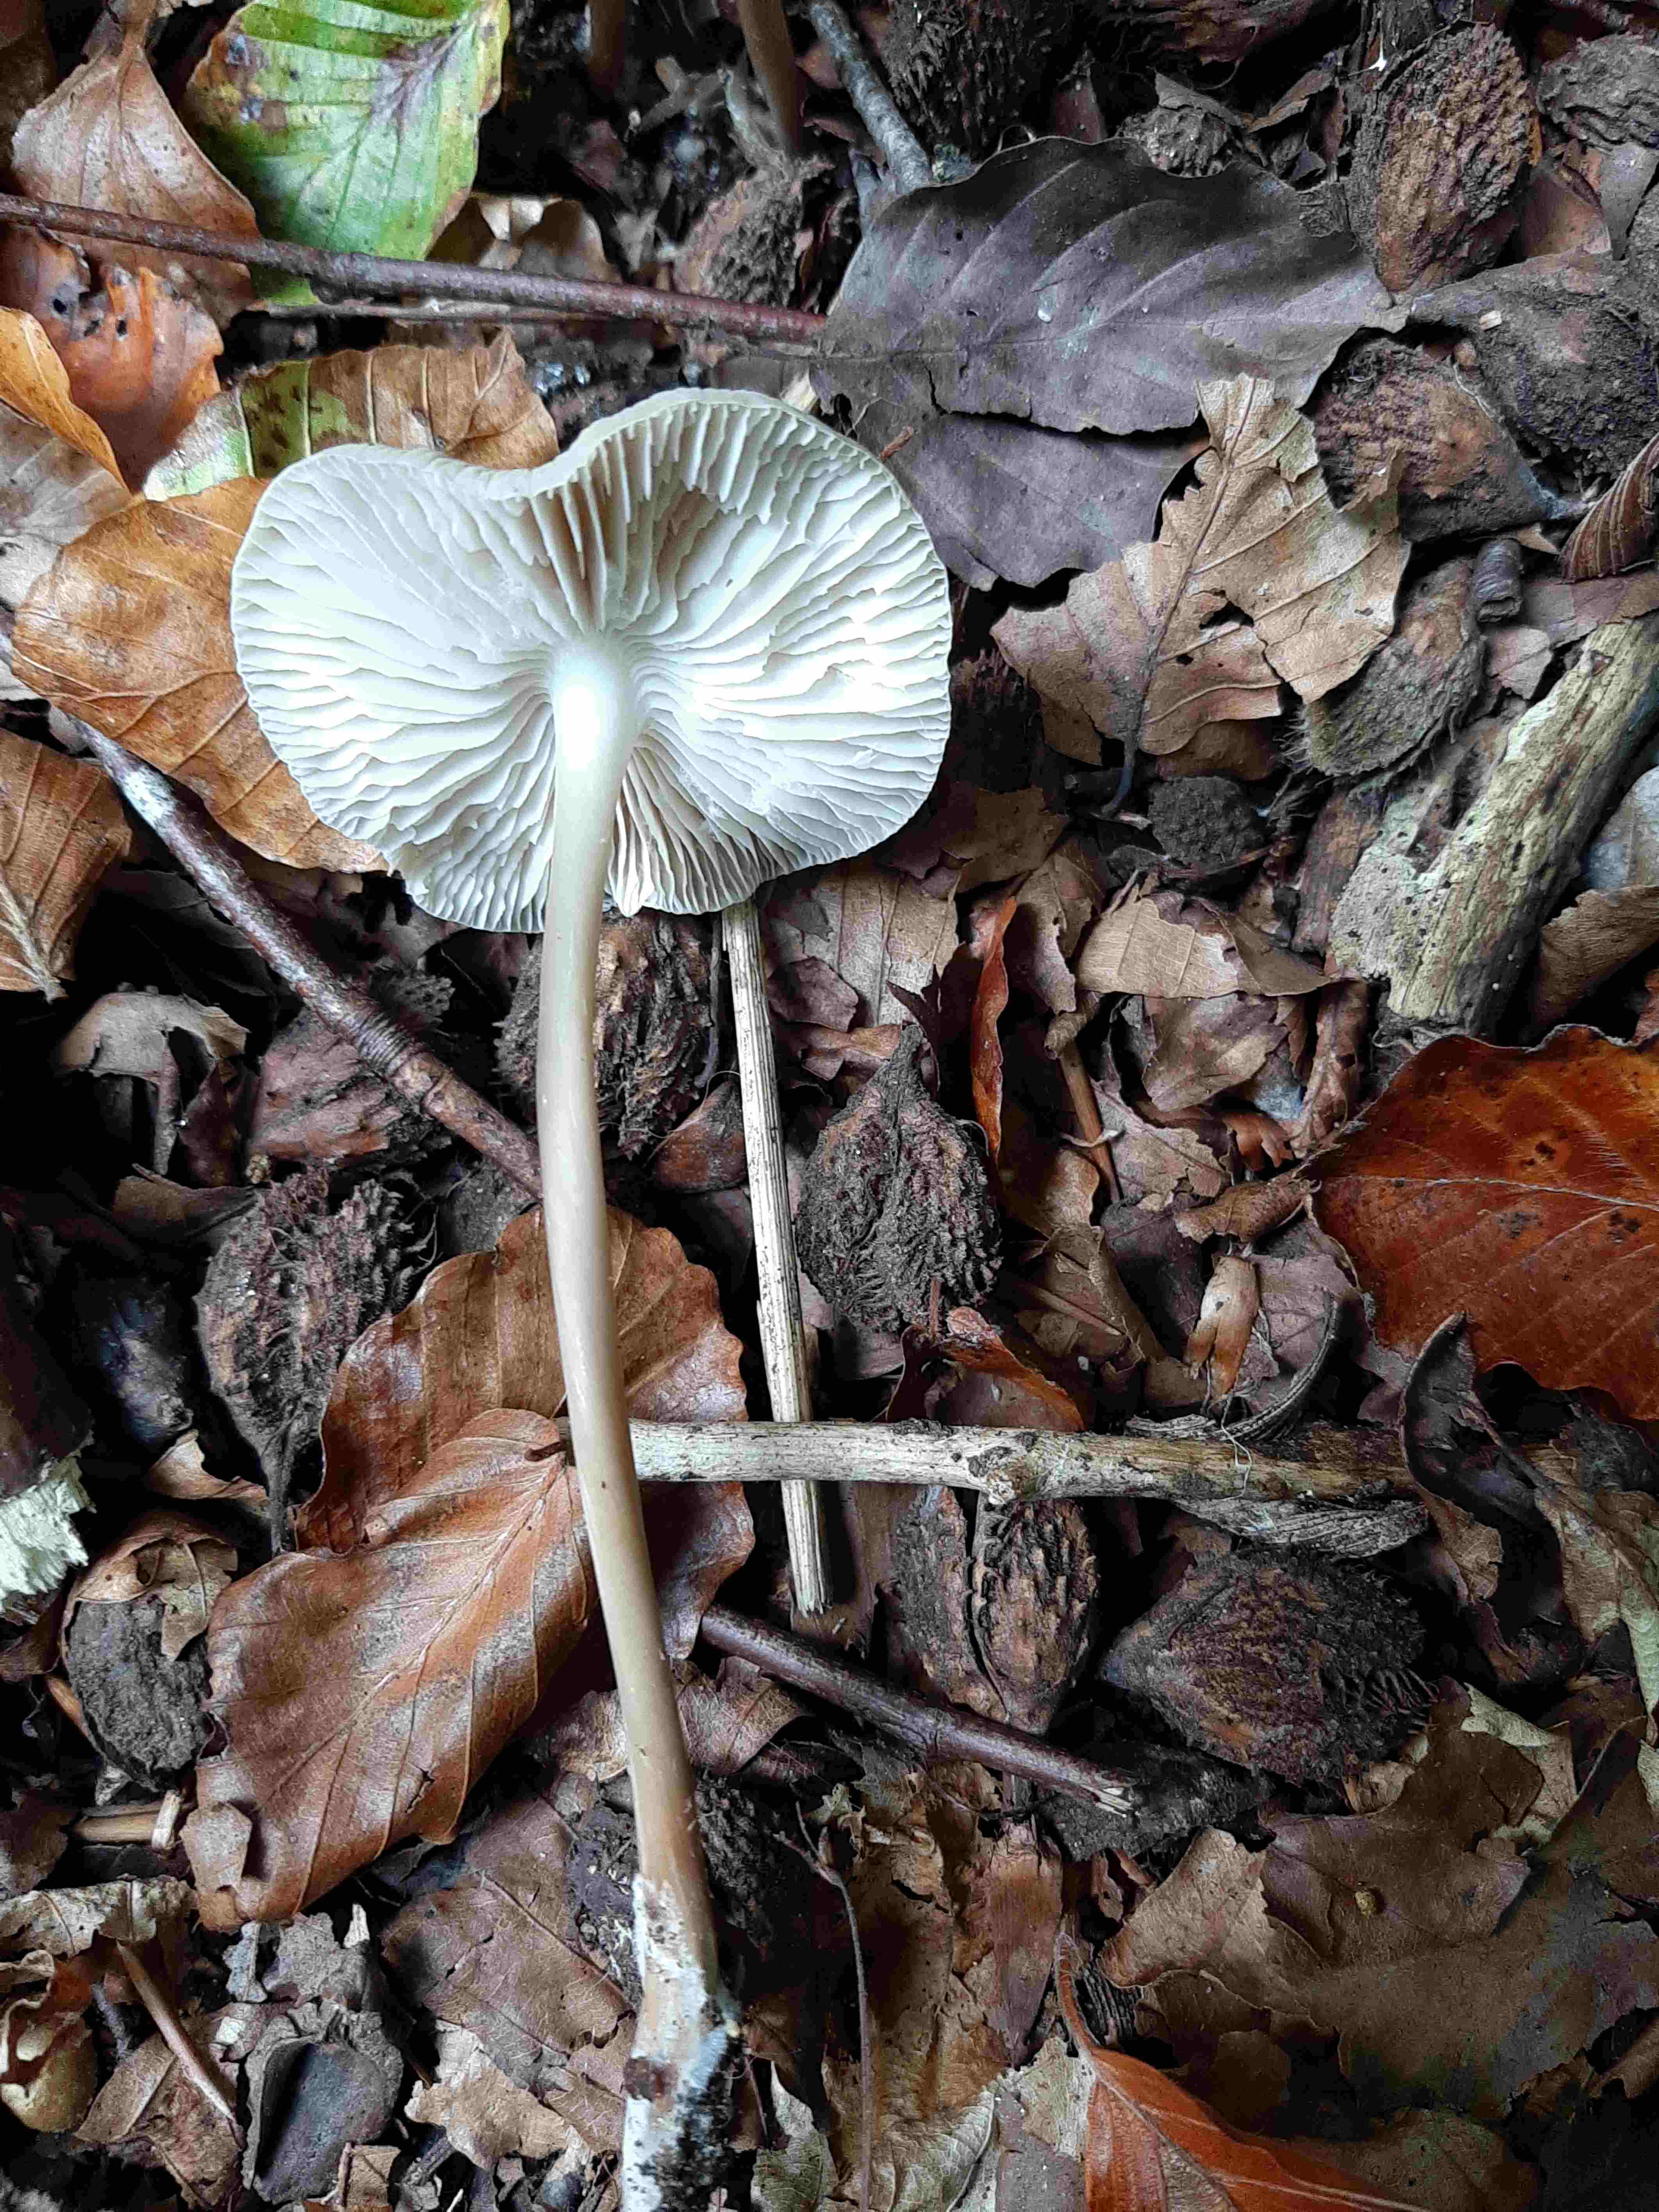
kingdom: Fungi
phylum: Basidiomycota
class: Agaricomycetes
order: Agaricales
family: Mycenaceae
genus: Mycena
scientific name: Mycena galericulata
